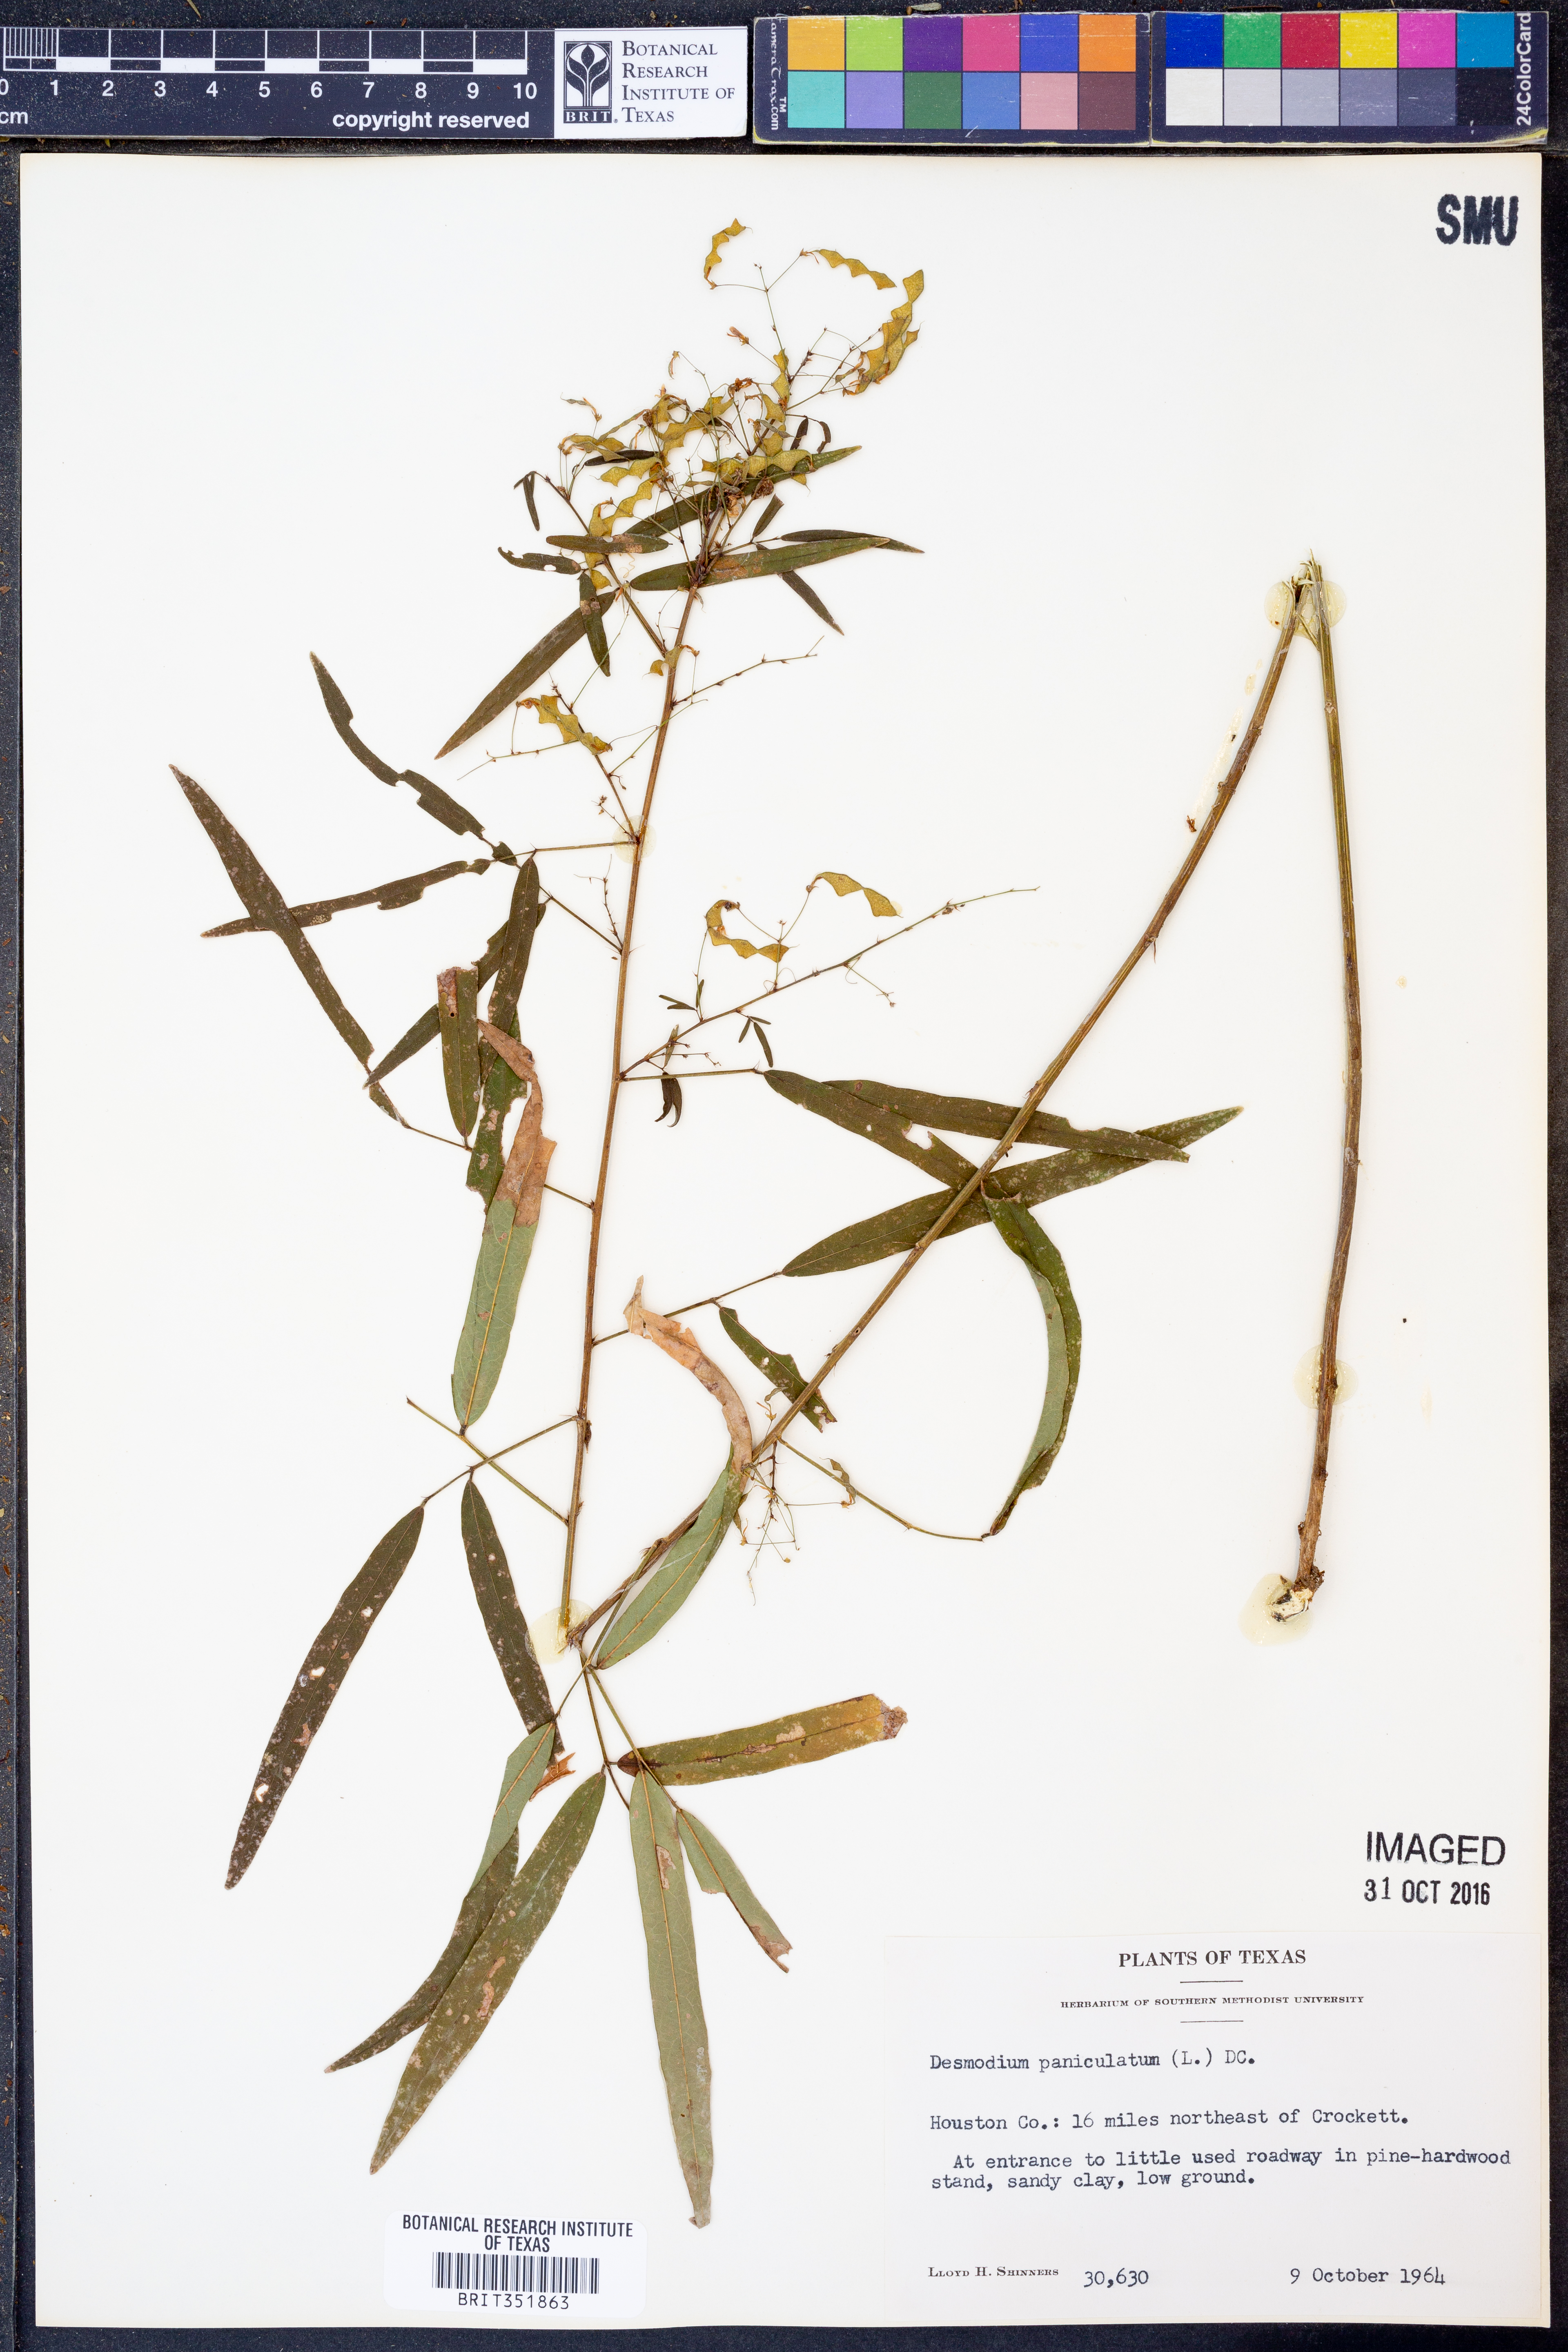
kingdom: Plantae
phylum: Tracheophyta
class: Magnoliopsida
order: Fabales
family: Fabaceae
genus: Desmodium
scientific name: Desmodium paniculatum
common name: Panicled tick-clover
